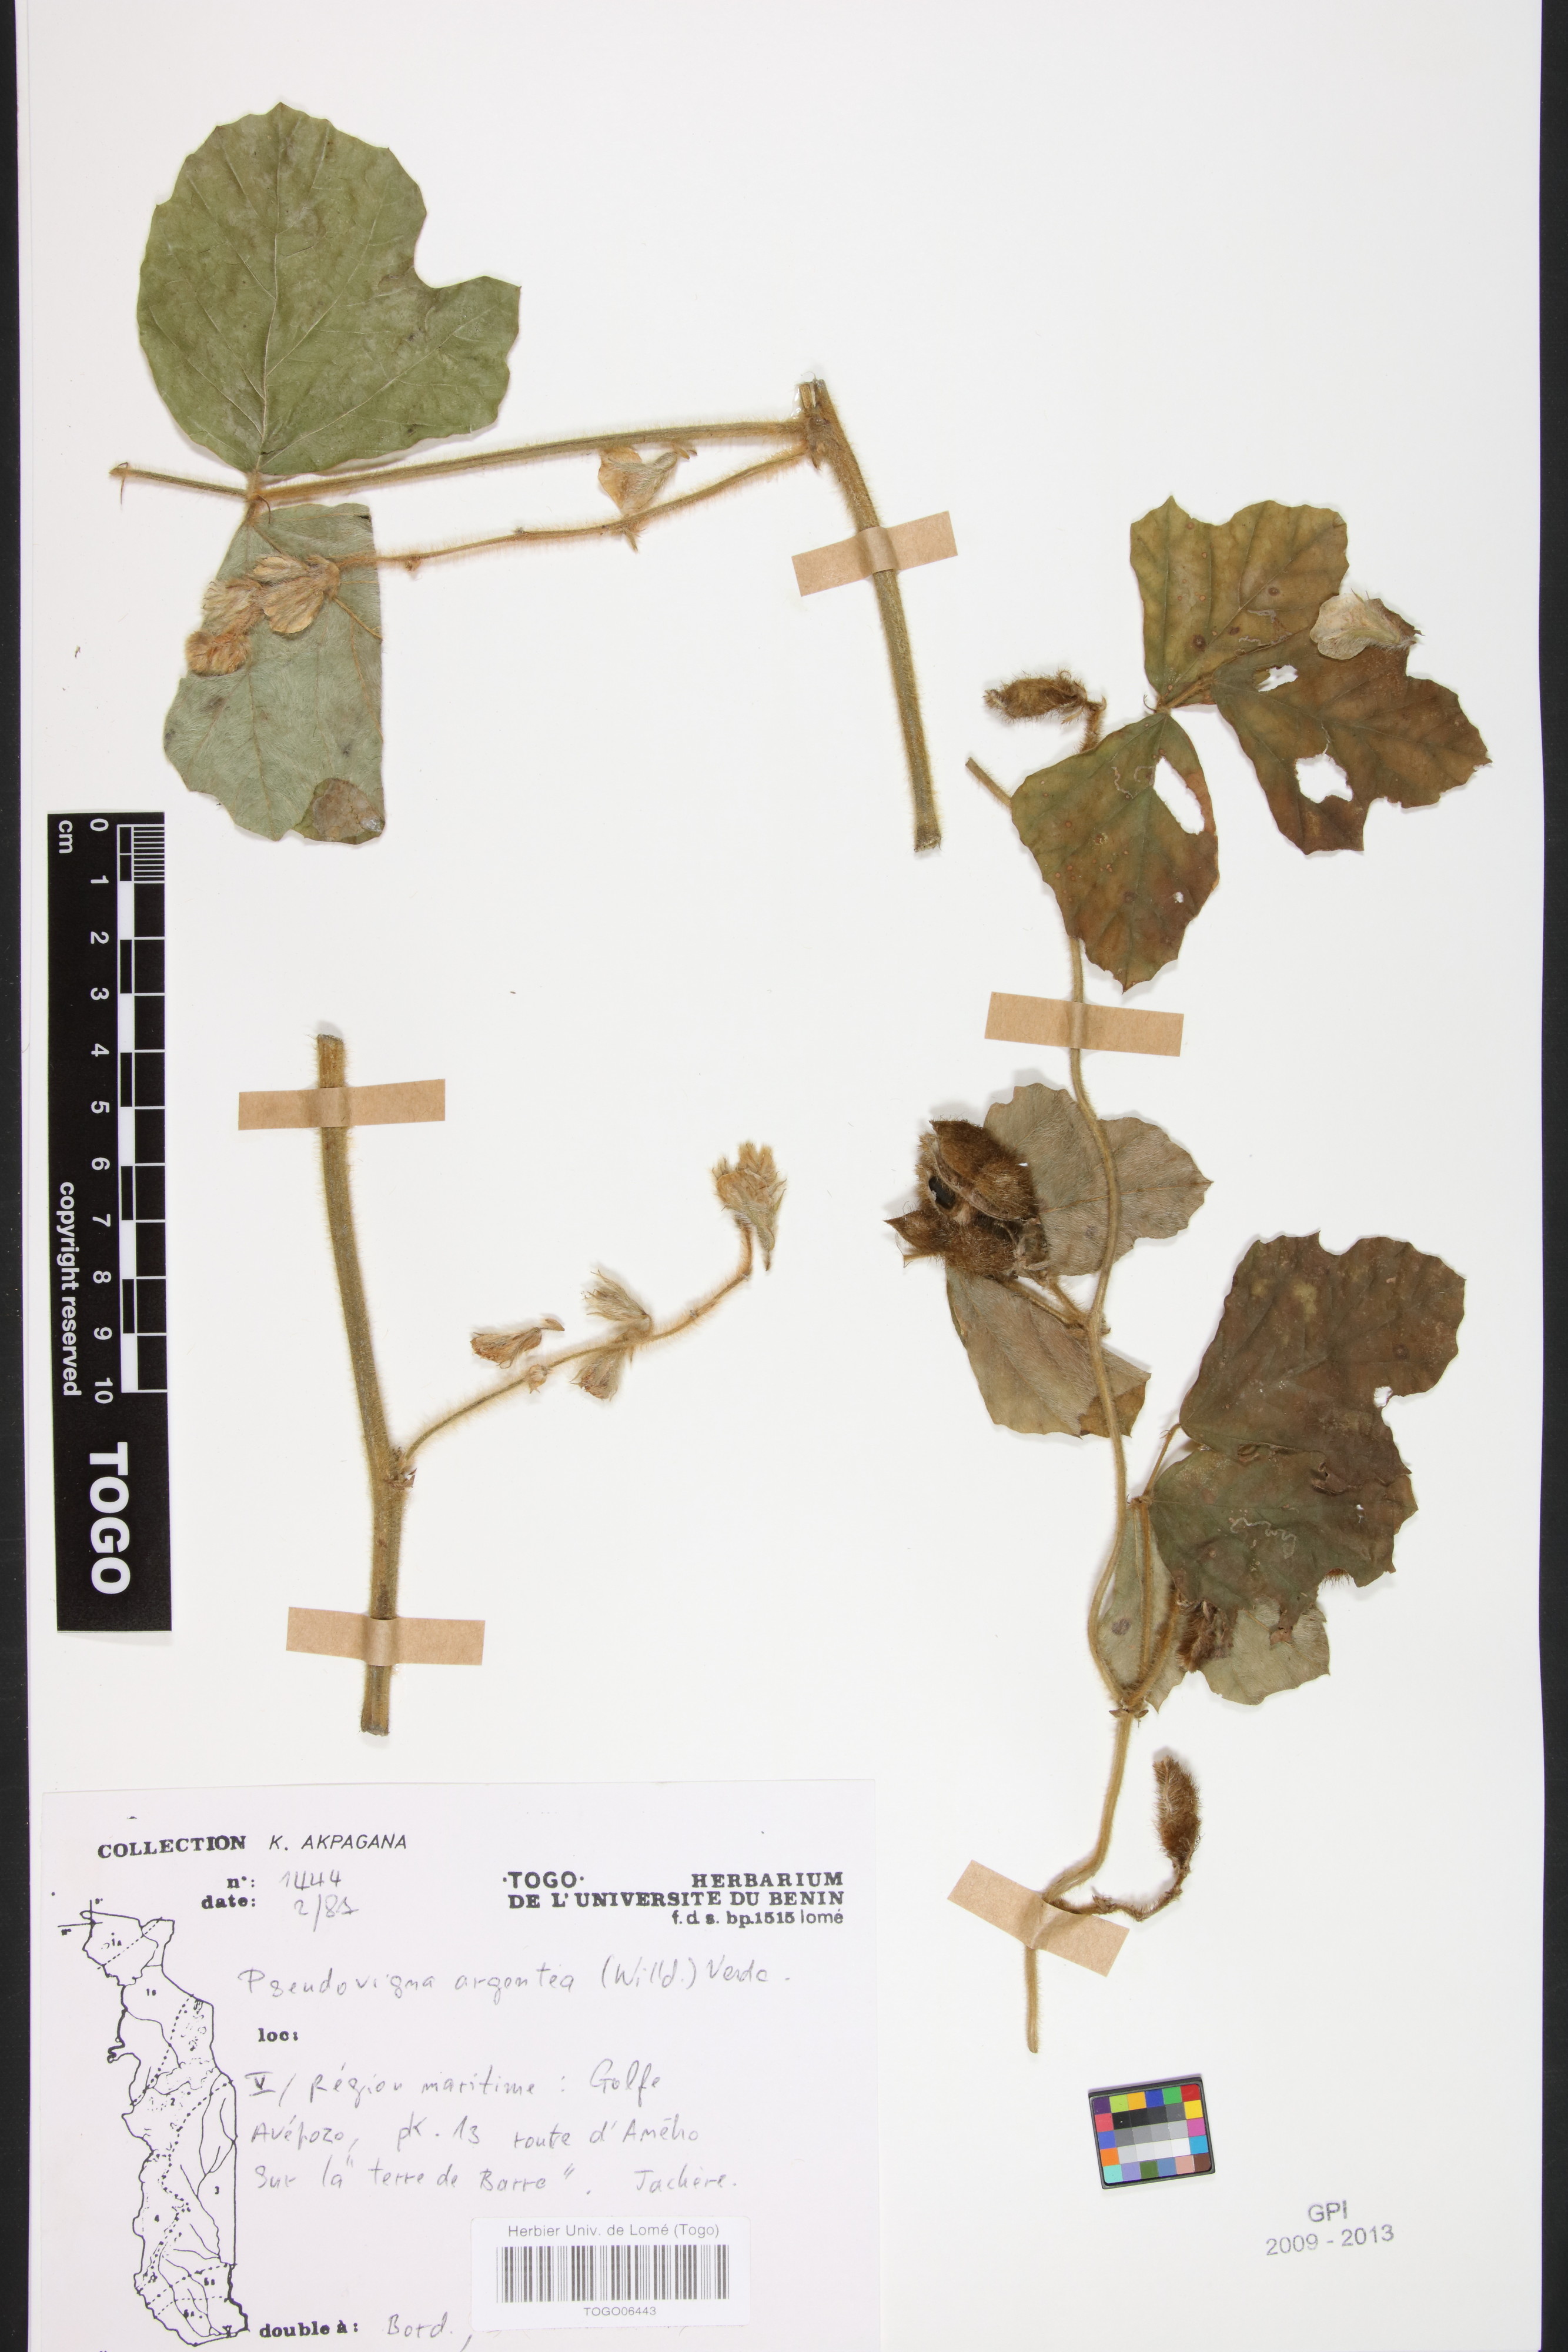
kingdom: Plantae
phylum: Tracheophyta
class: Magnoliopsida
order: Fabales
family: Fabaceae
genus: Pseudovigna
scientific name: Pseudovigna argentea
